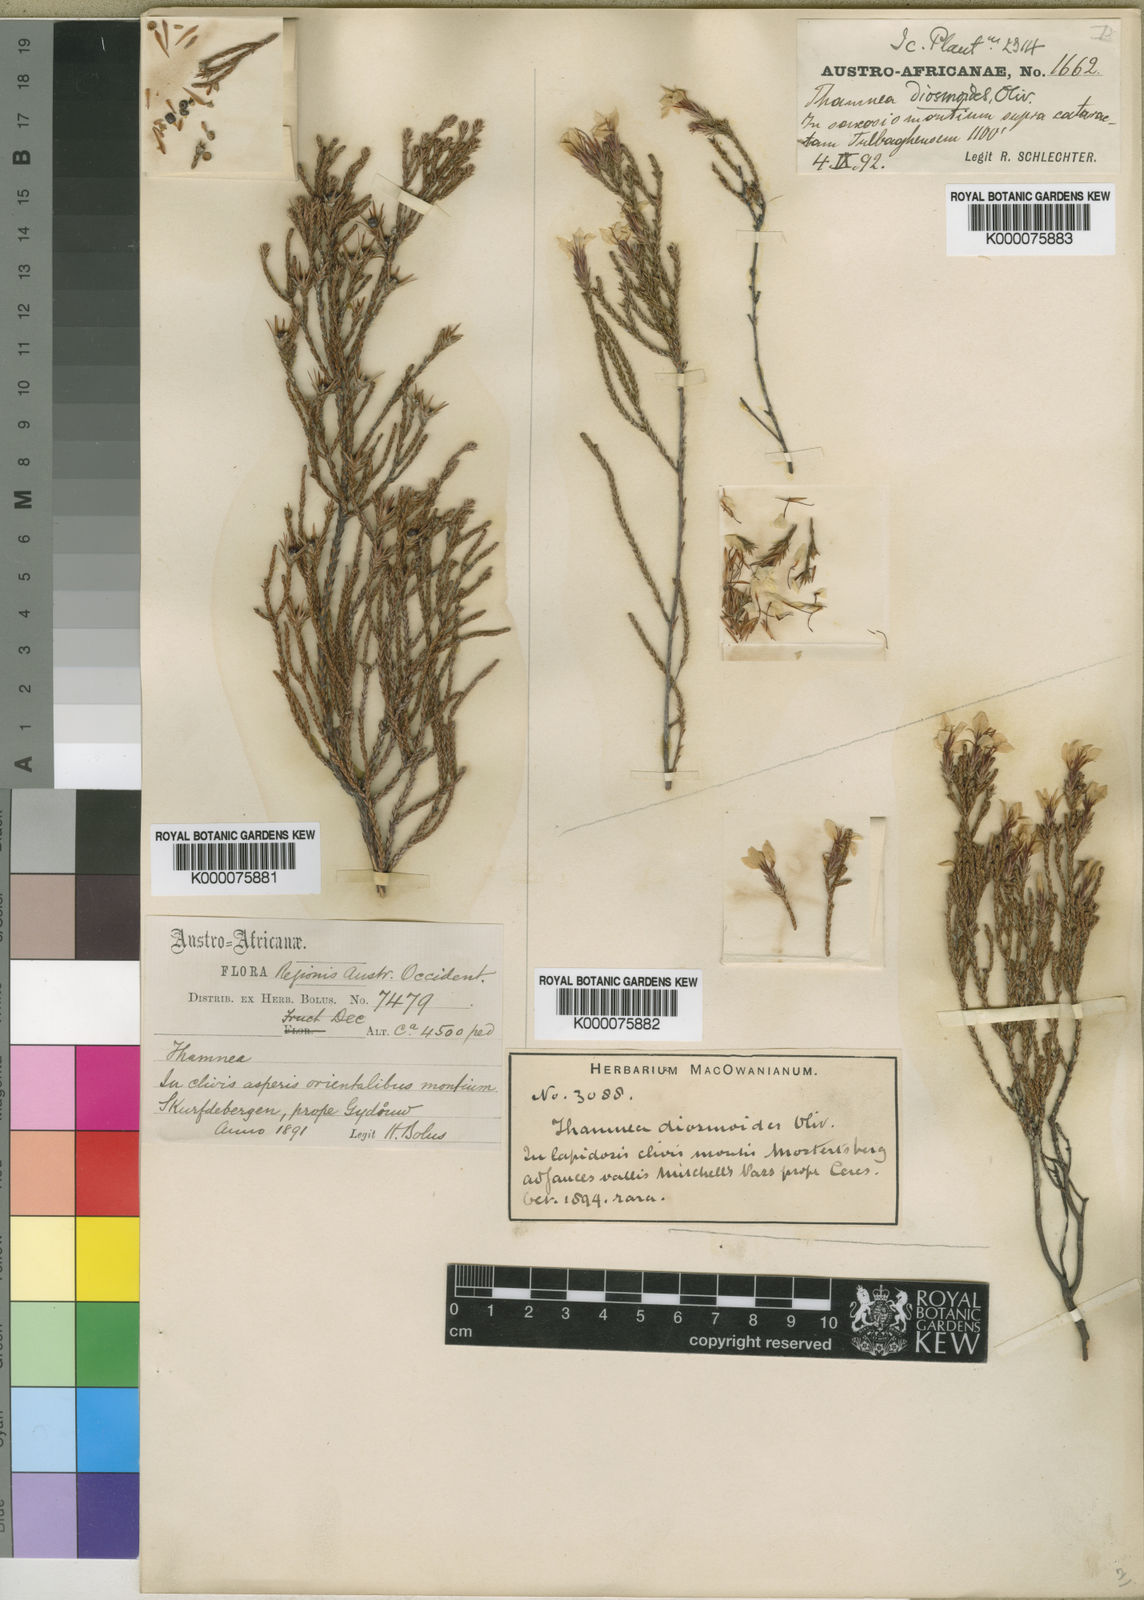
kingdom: Plantae
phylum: Tracheophyta
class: Magnoliopsida
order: Bruniales
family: Bruniaceae
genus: Thamnea
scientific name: Thamnea ustulata
